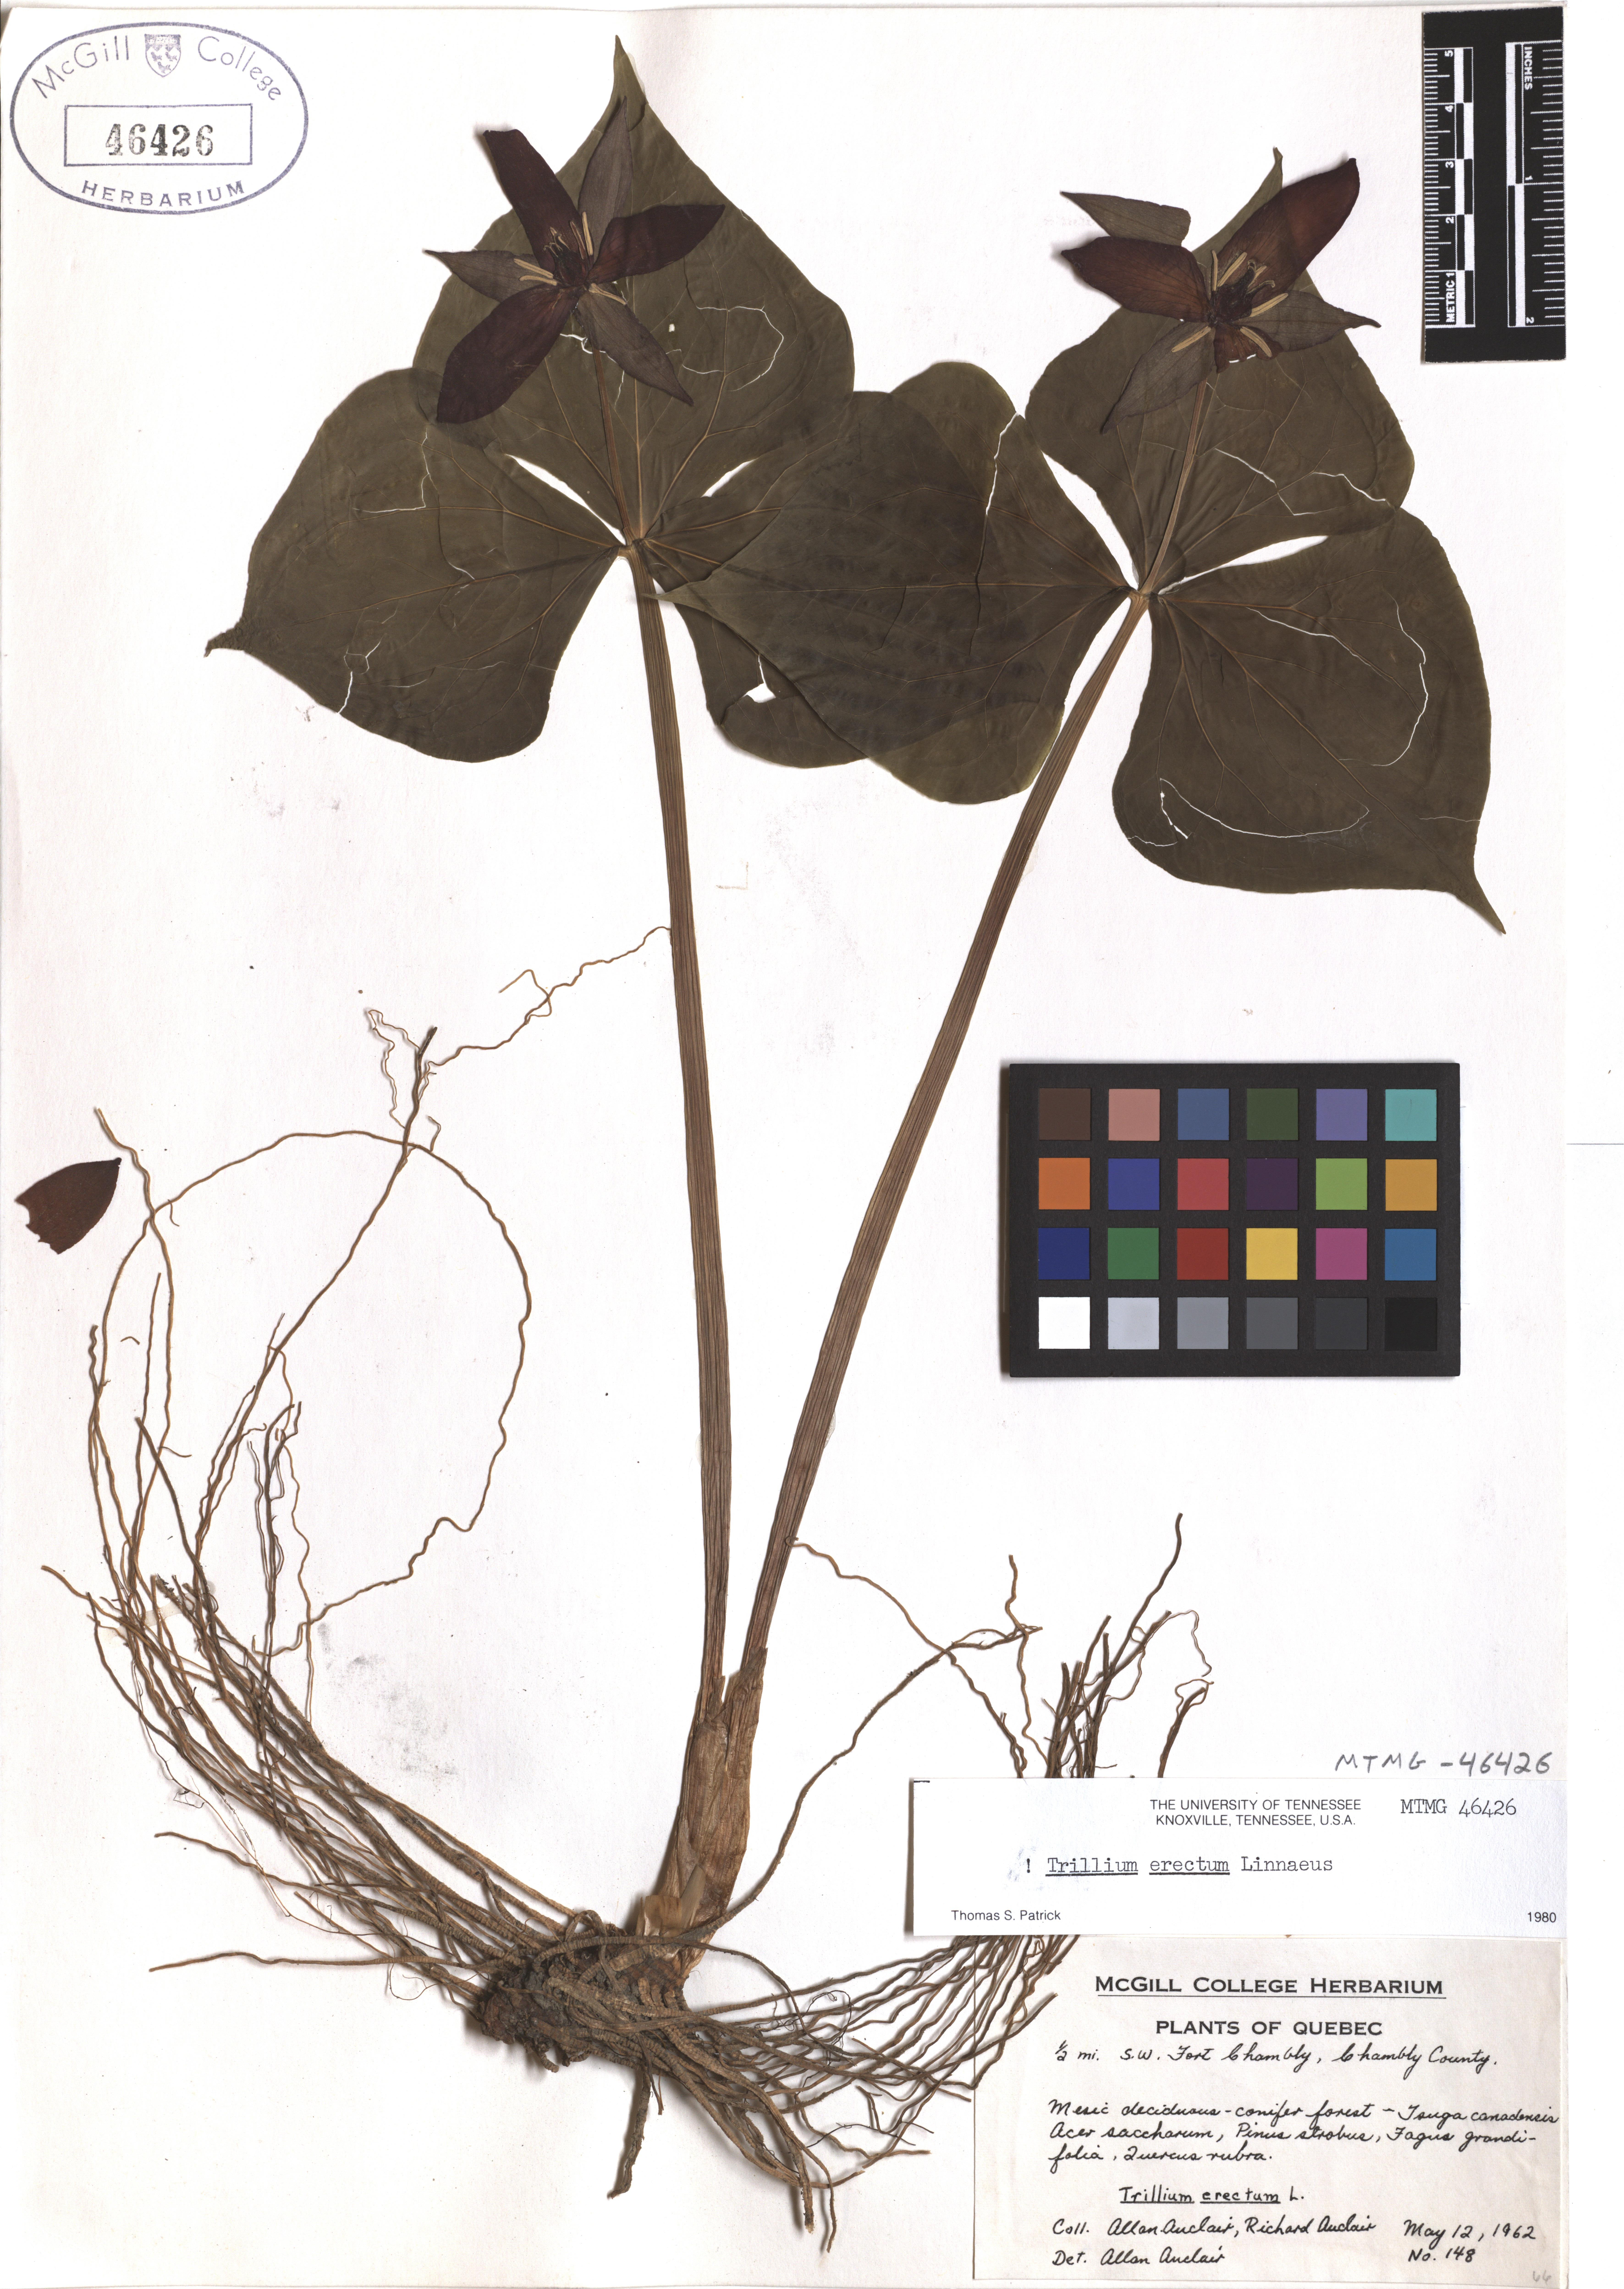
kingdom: Plantae
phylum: Tracheophyta
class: Liliopsida
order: Liliales
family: Melanthiaceae
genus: Trillium
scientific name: Trillium erectum
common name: Purple trillium
